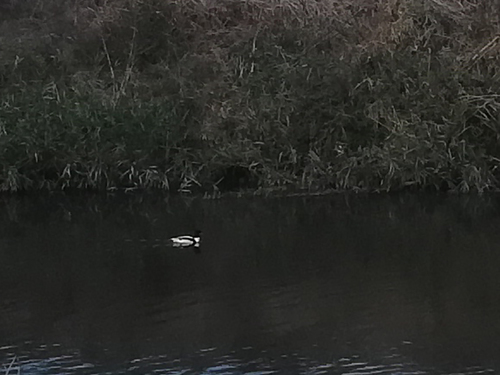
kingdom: Animalia
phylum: Chordata
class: Aves
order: Anseriformes
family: Anatidae
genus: Tadorna
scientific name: Tadorna tadorna
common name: Common shelduck
